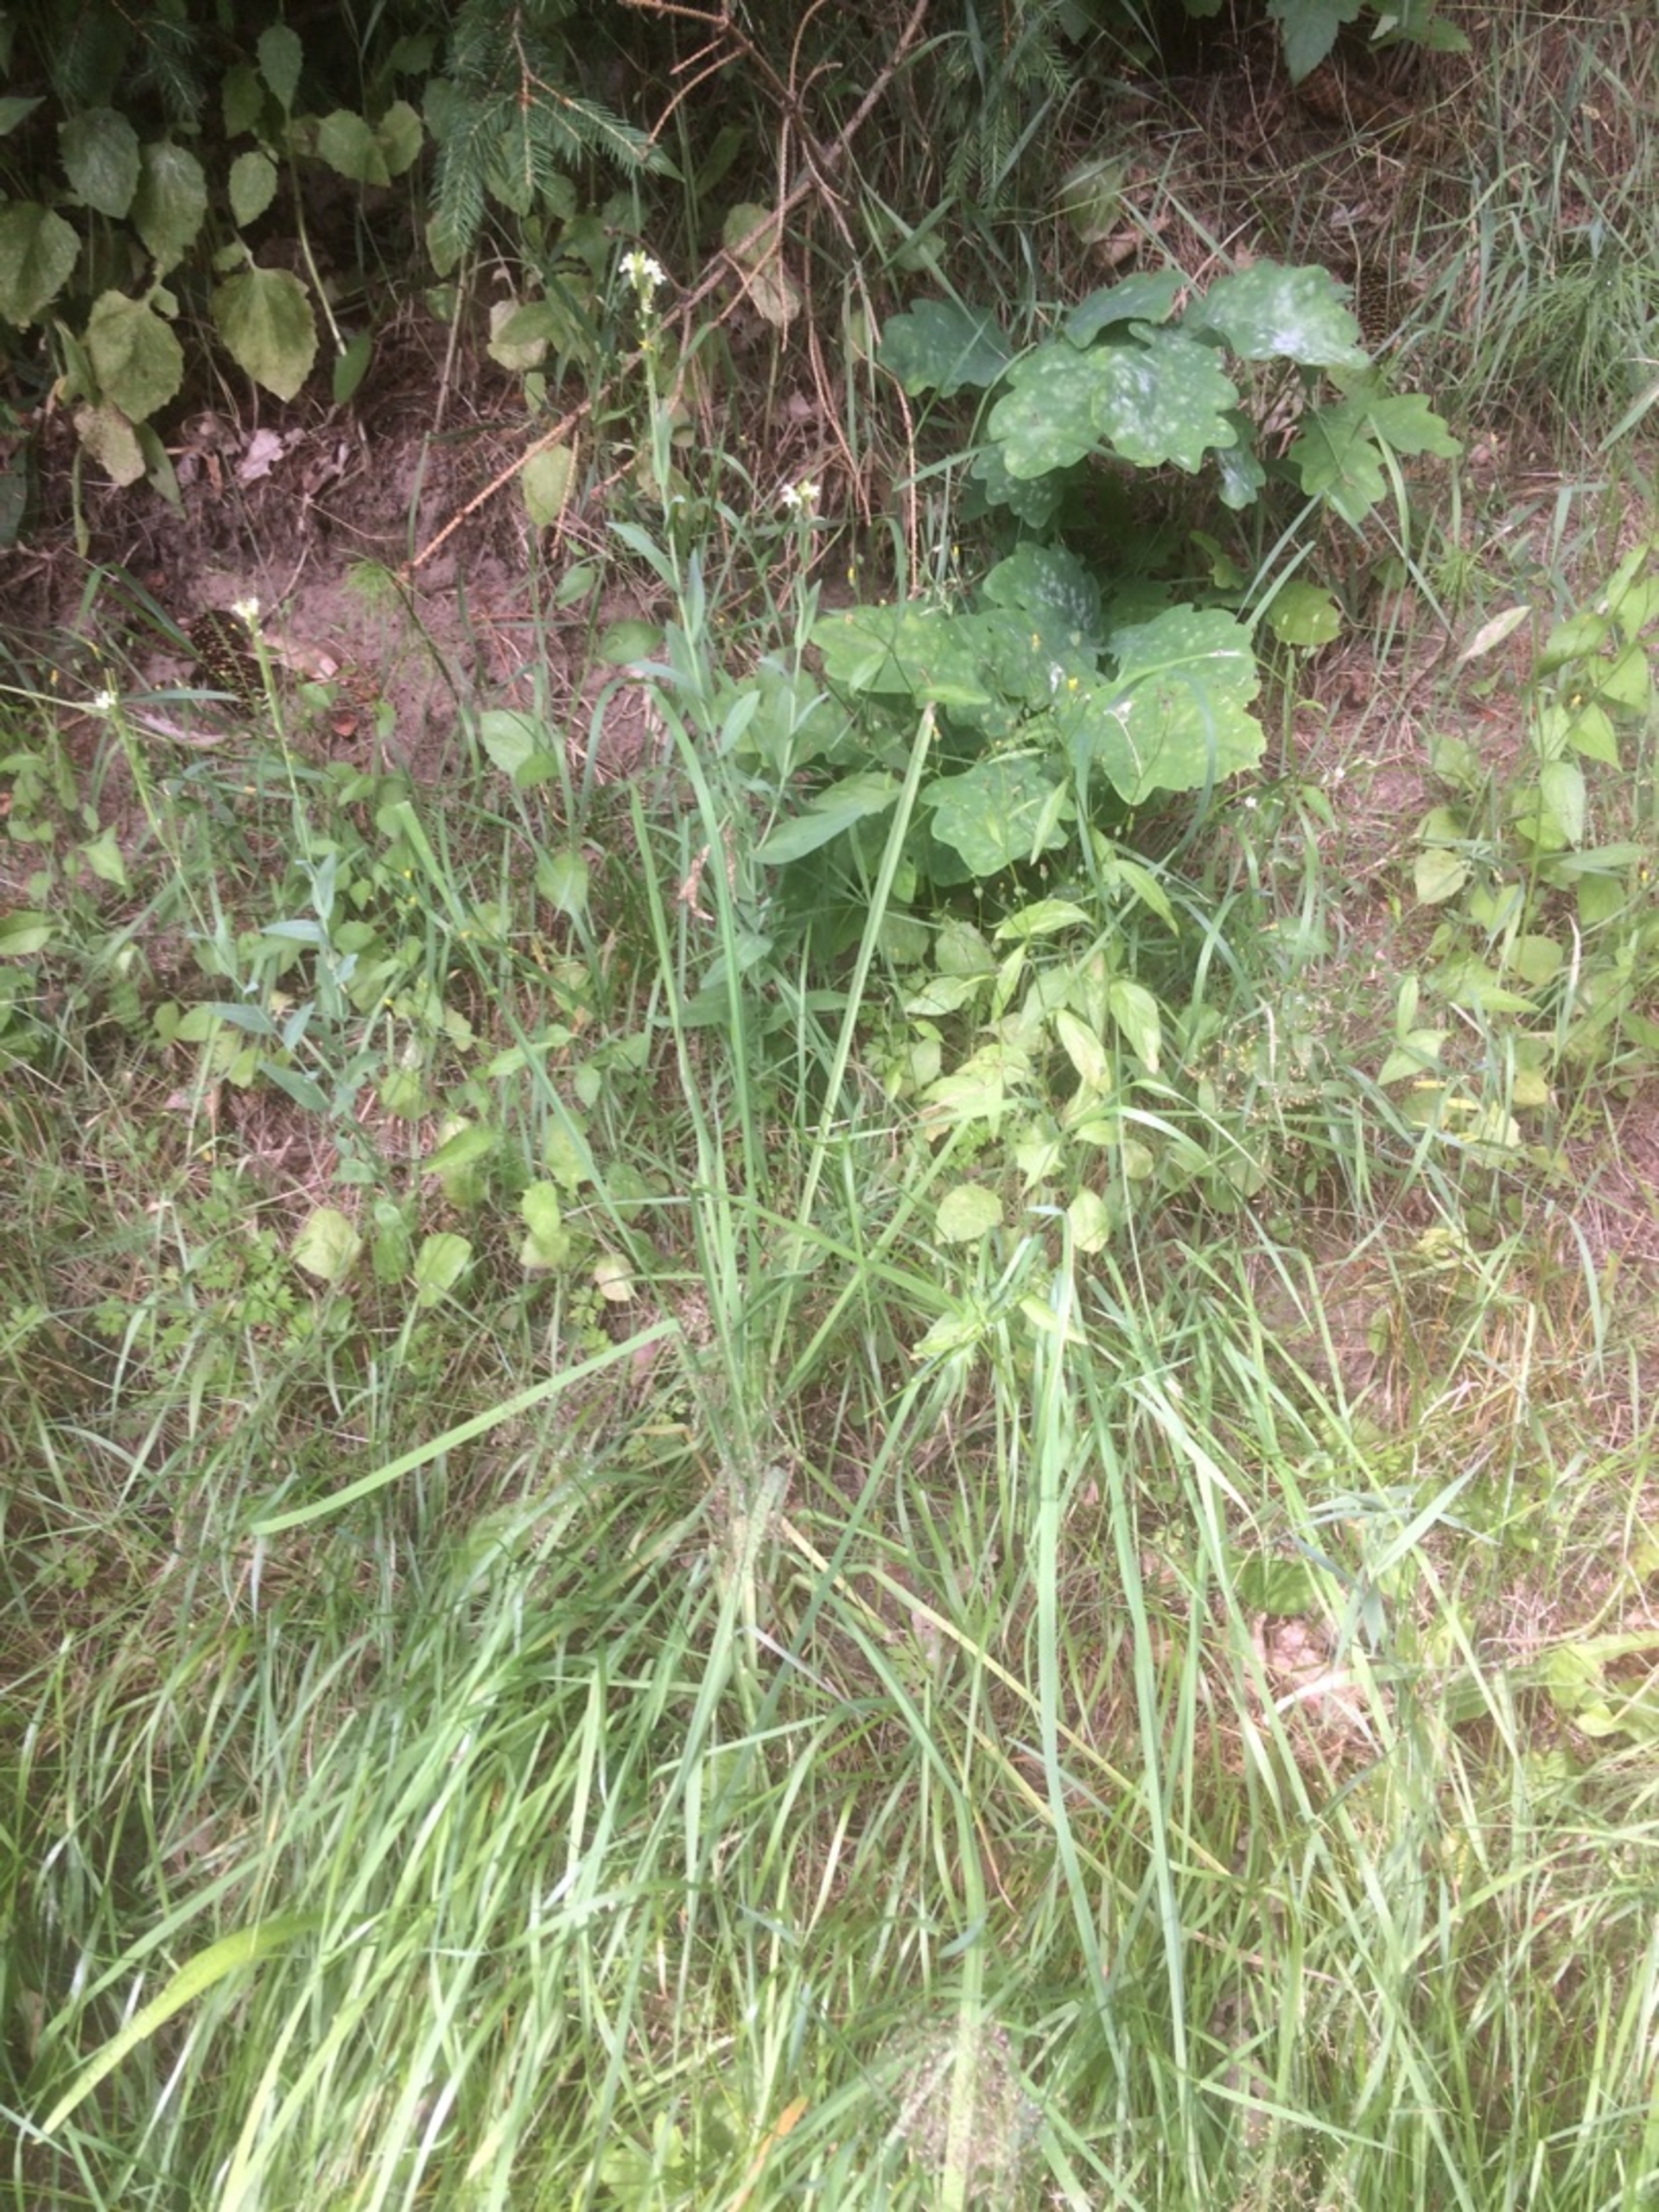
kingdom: Plantae
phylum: Tracheophyta
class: Magnoliopsida
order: Brassicales
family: Brassicaceae
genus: Turritis
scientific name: Turritis glabra
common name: Tårnurt
